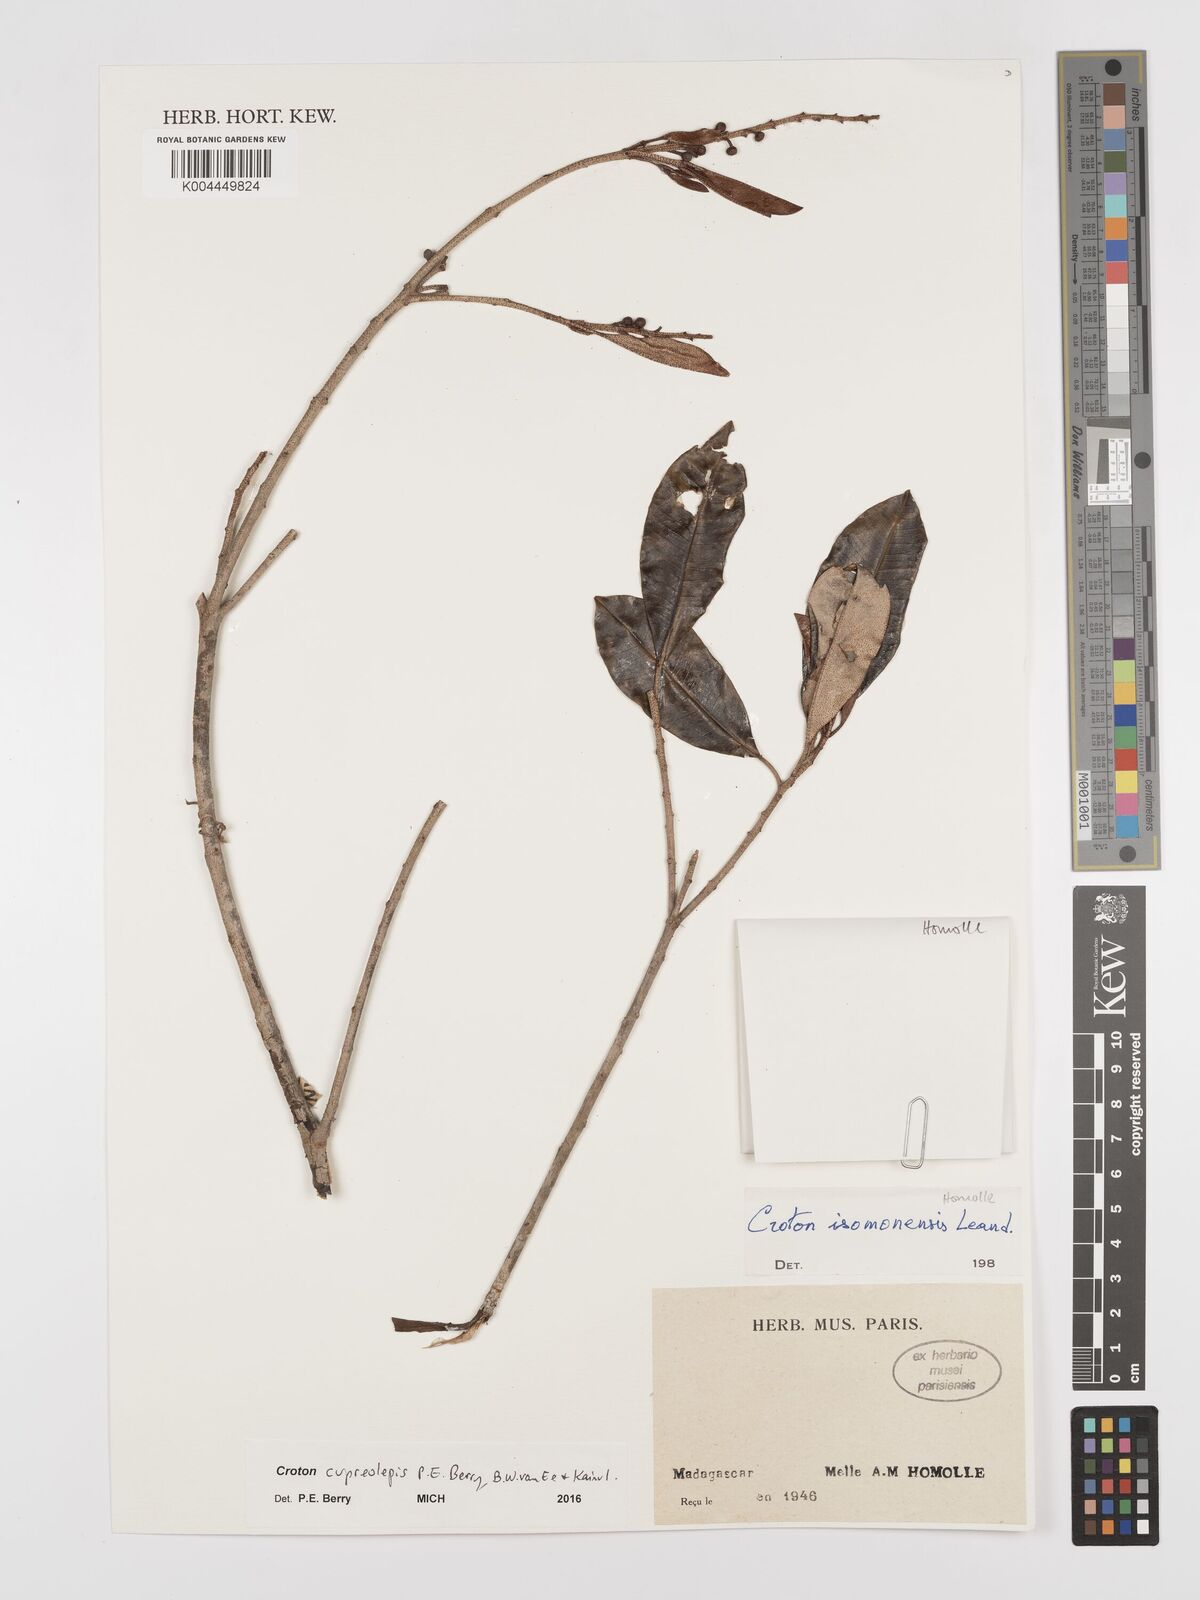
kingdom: Plantae
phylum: Tracheophyta
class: Magnoliopsida
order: Malpighiales
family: Euphorbiaceae
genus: Croton
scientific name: Croton cupreolepis
